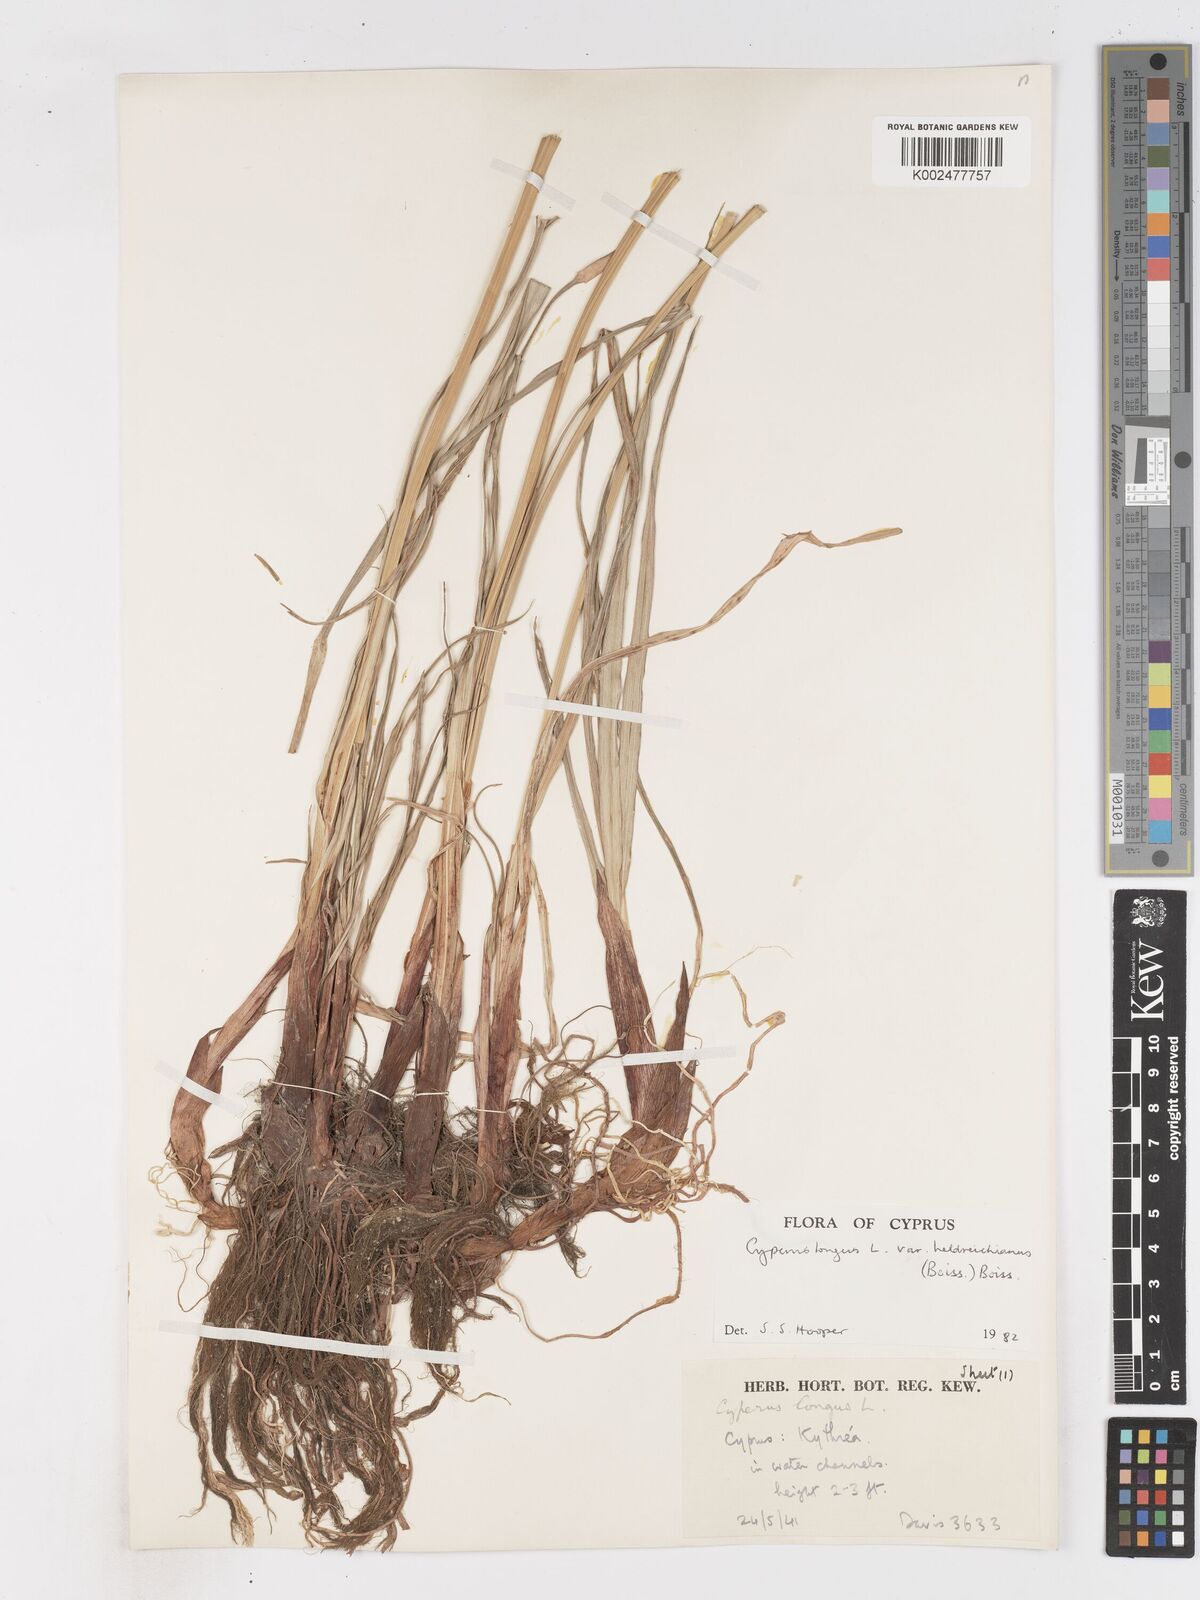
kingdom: Plantae
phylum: Tracheophyta
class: Liliopsida
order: Poales
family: Cyperaceae
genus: Cyperus
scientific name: Cyperus longus
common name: Galingale
